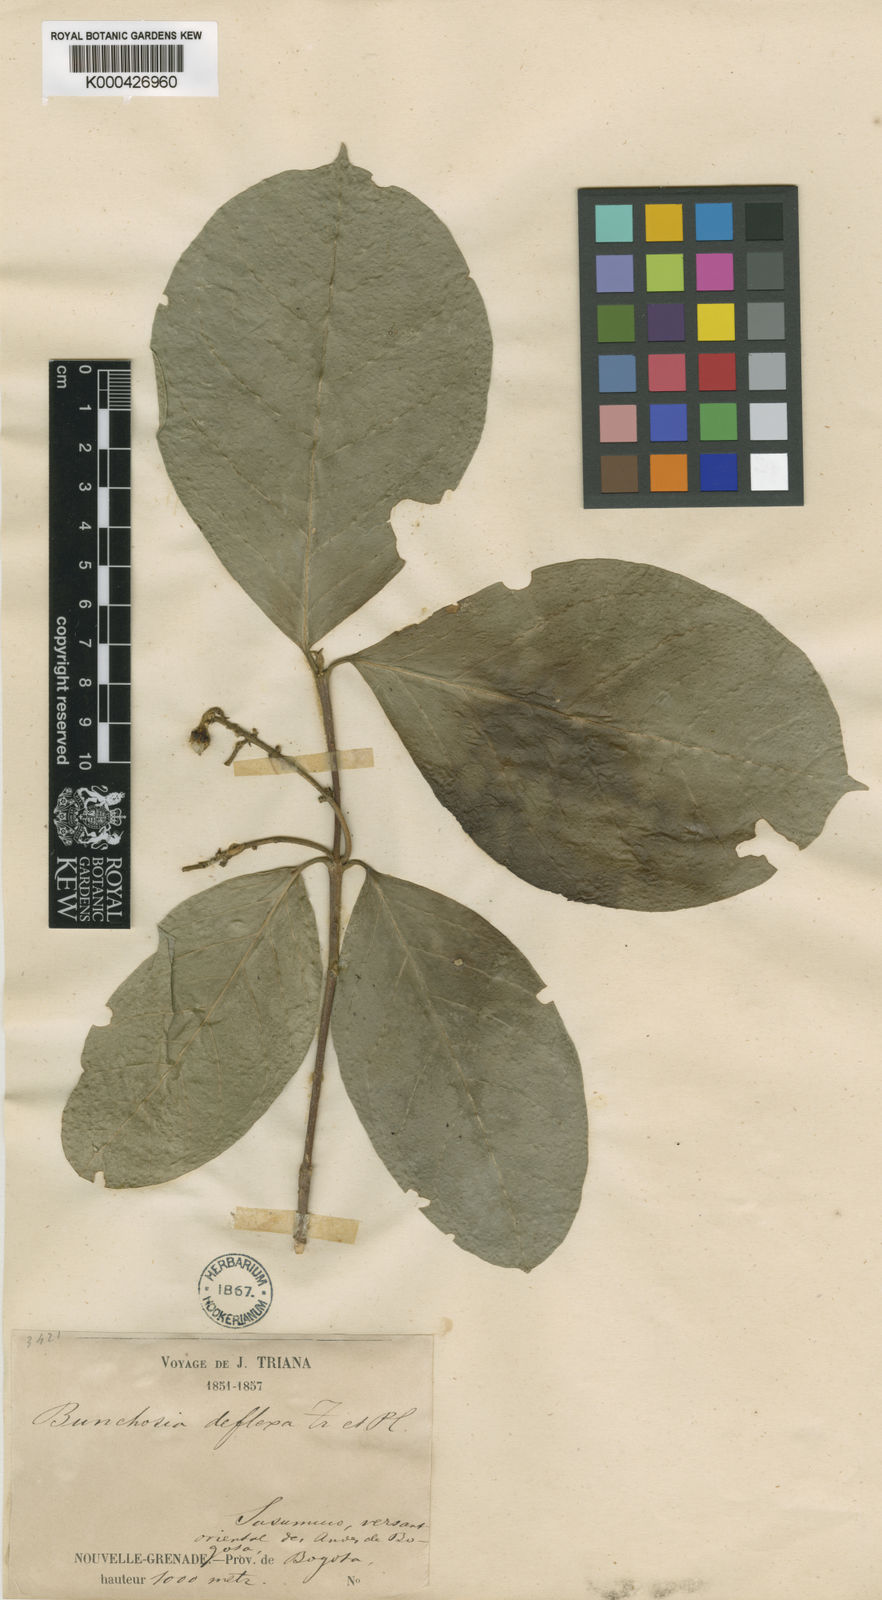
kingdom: Plantae
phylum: Tracheophyta
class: Magnoliopsida
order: Malpighiales
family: Malpighiaceae
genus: Bunchosia
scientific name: Bunchosia deflexa
